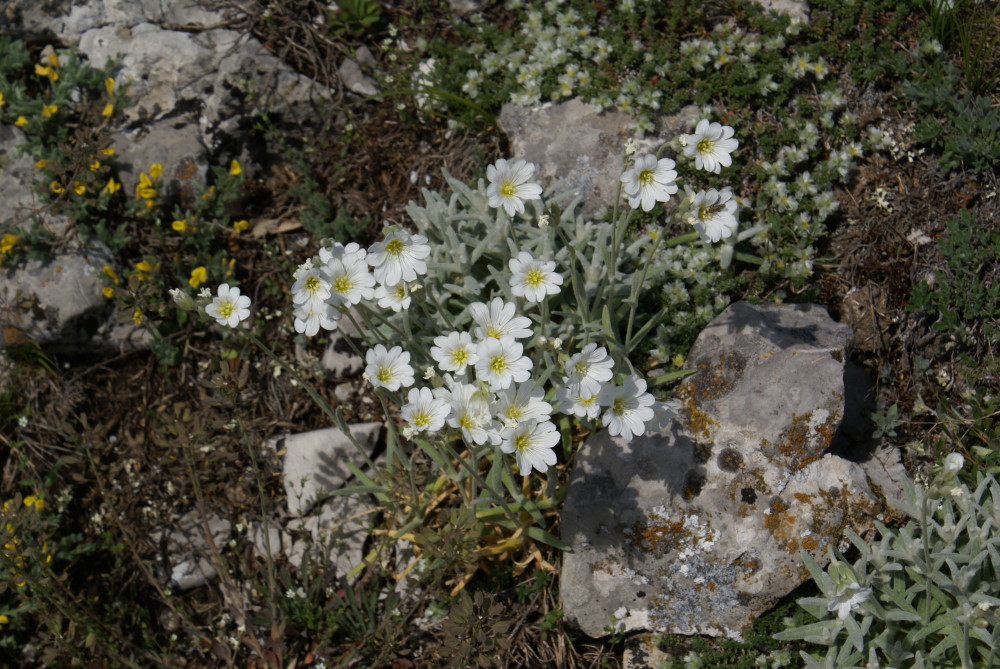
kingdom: Plantae
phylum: Tracheophyta
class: Magnoliopsida
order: Caryophyllales
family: Caryophyllaceae
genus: Cerastium
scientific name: Cerastium biebersteinii
